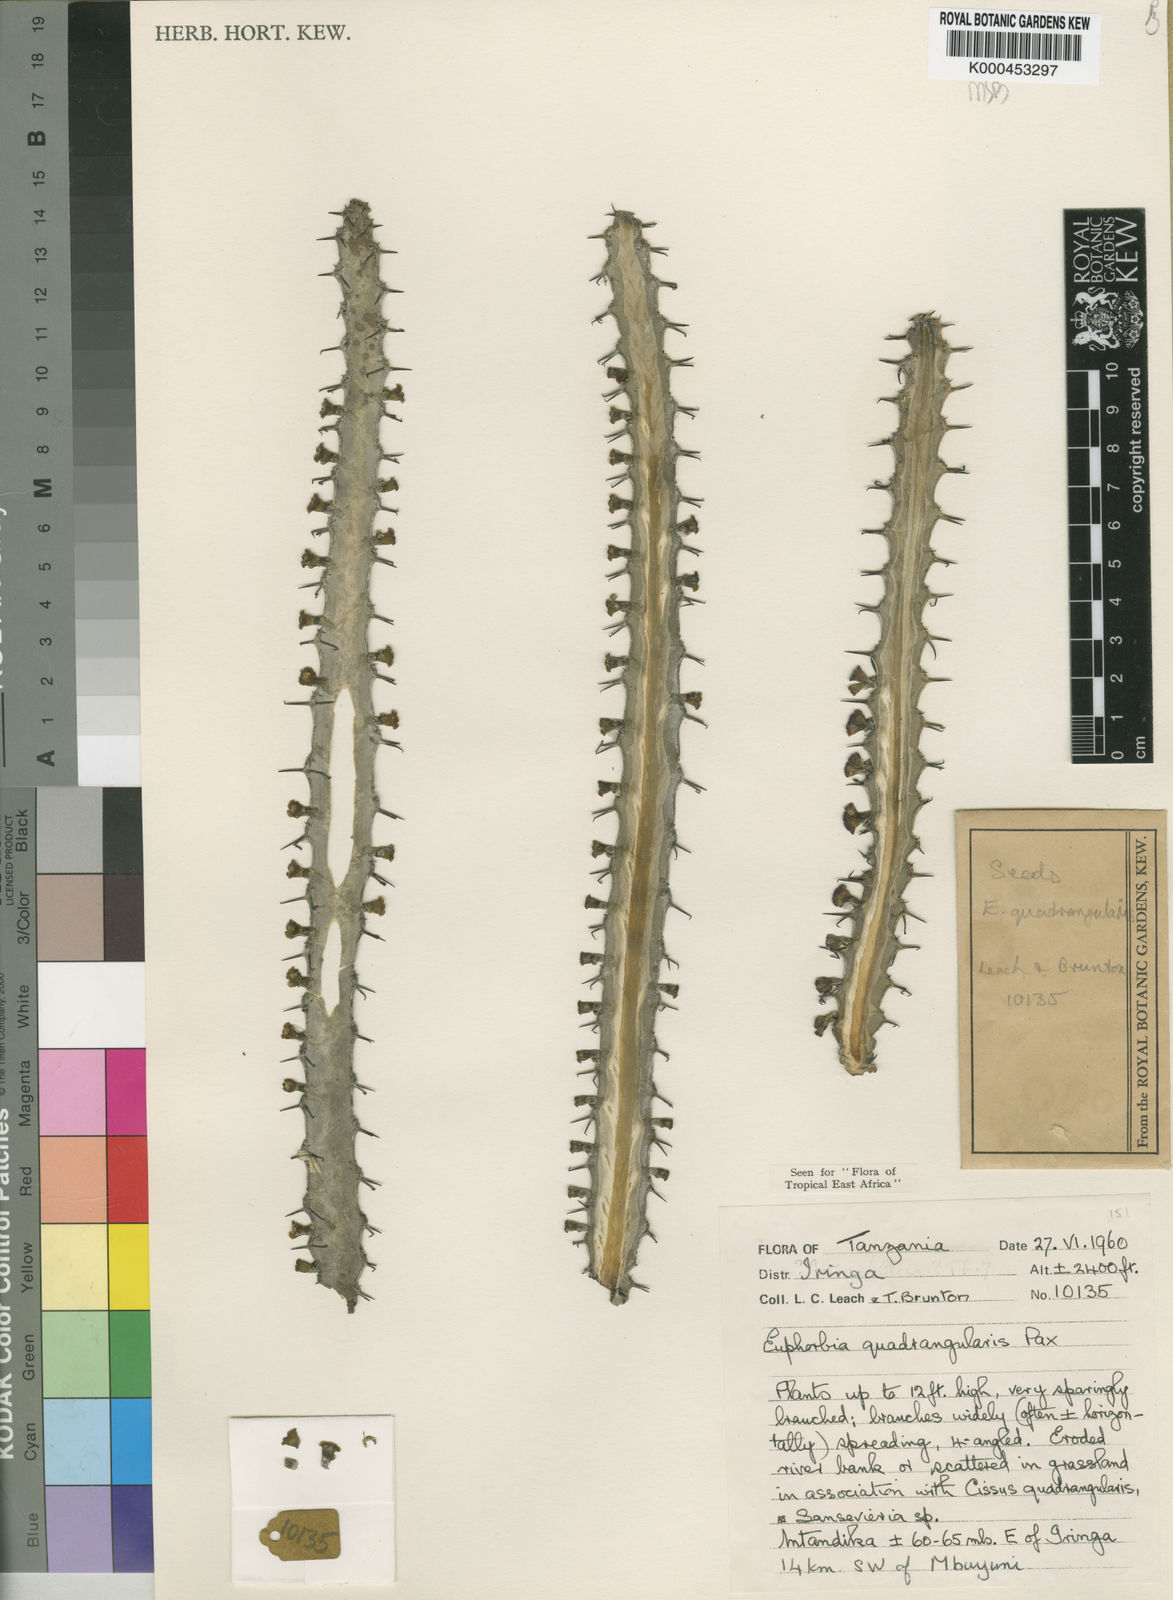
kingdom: Plantae
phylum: Tracheophyta
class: Magnoliopsida
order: Malpighiales
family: Euphorbiaceae
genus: Euphorbia
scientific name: Euphorbia quadrangularis
